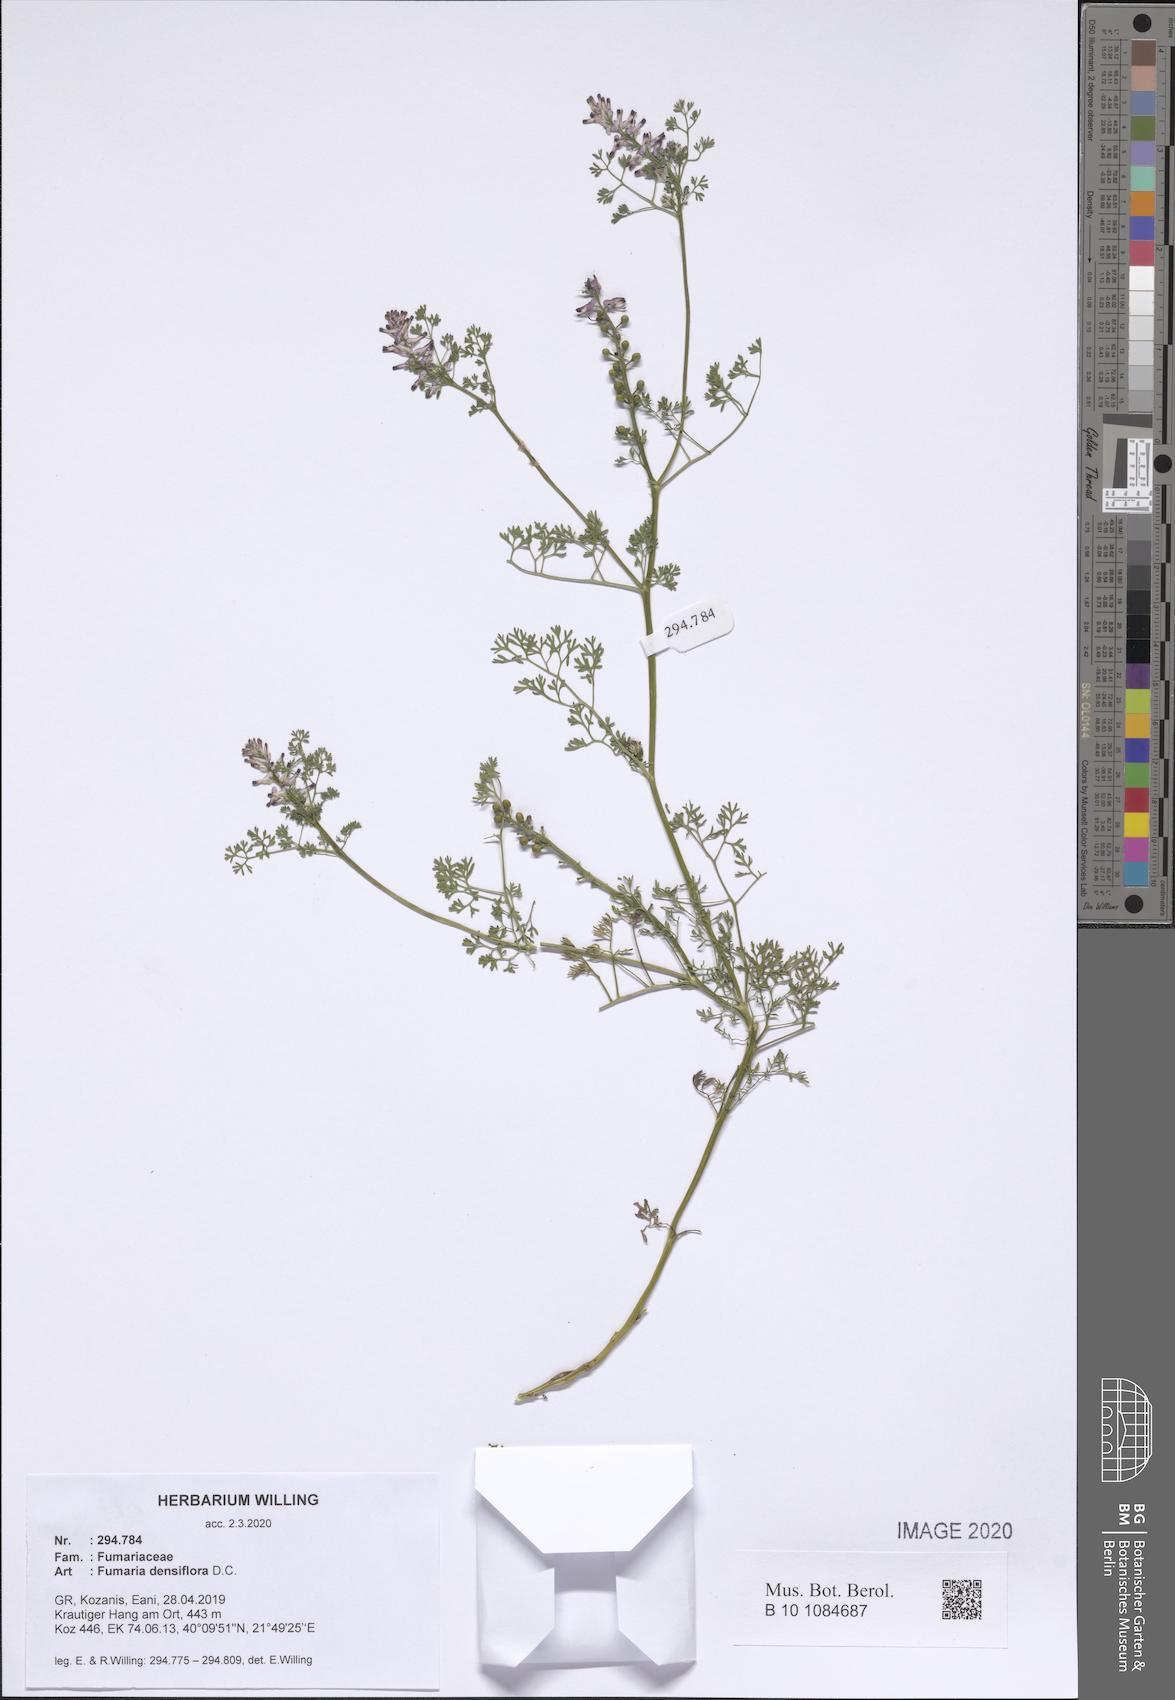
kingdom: Plantae
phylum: Tracheophyta
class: Magnoliopsida
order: Ranunculales
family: Papaveraceae
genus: Fumaria
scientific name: Fumaria densiflora
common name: Dense-flowered fumitory
